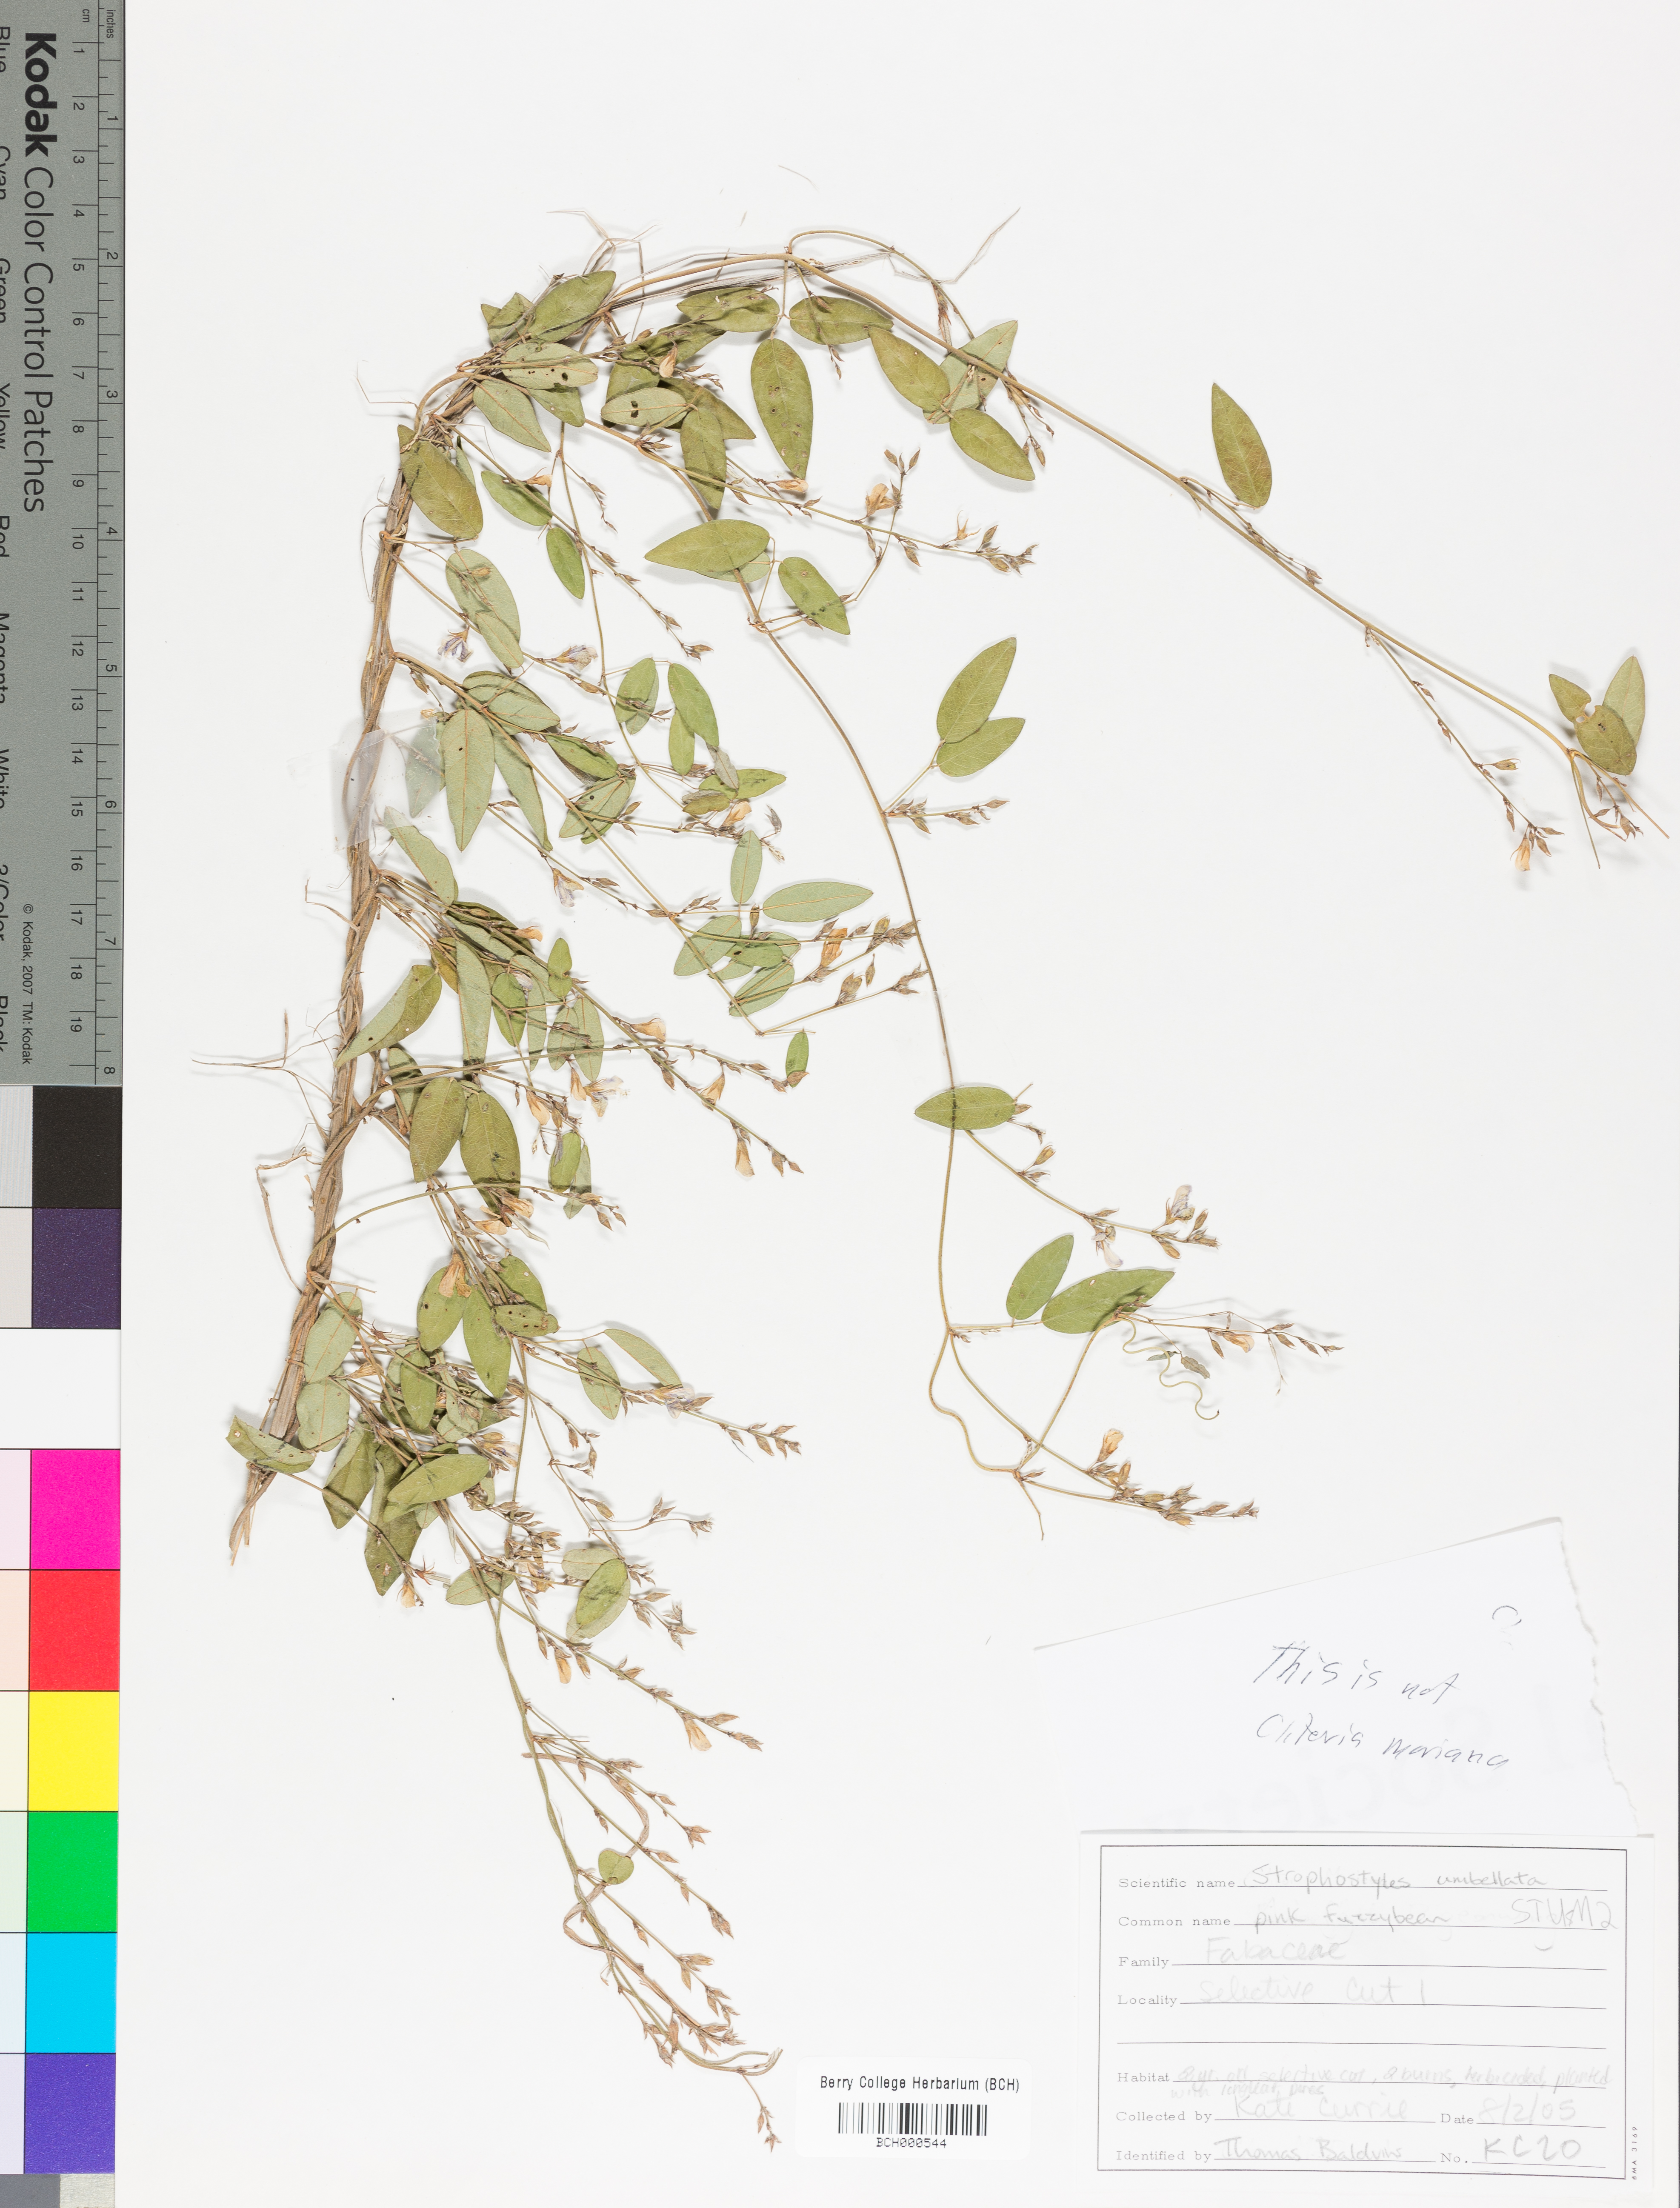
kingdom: Plantae
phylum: Tracheophyta
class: Magnoliopsida
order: Fabales
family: Fabaceae
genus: Strophostyles
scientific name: Strophostyles umbellata
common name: Perennial wild bean
